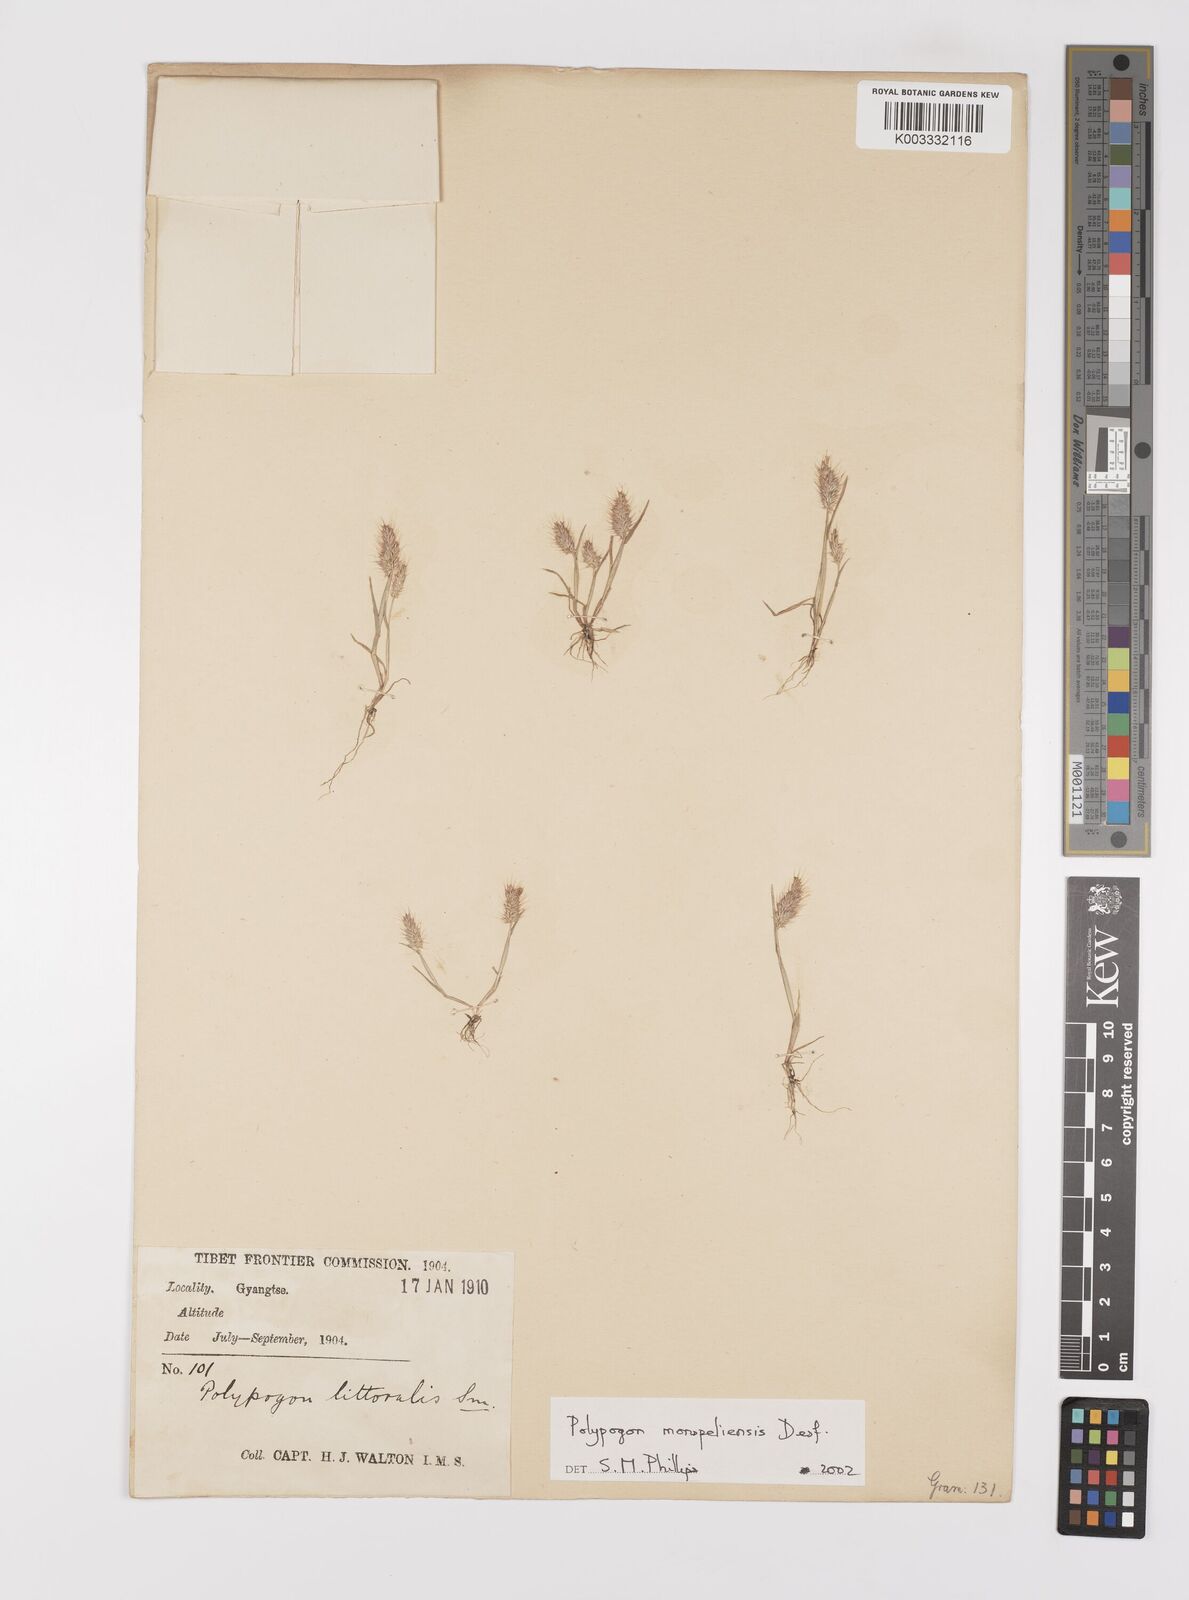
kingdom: Plantae
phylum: Tracheophyta
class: Liliopsida
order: Poales
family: Poaceae
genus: Polypogon
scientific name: Polypogon monspeliensis
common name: Annual rabbitsfoot grass
